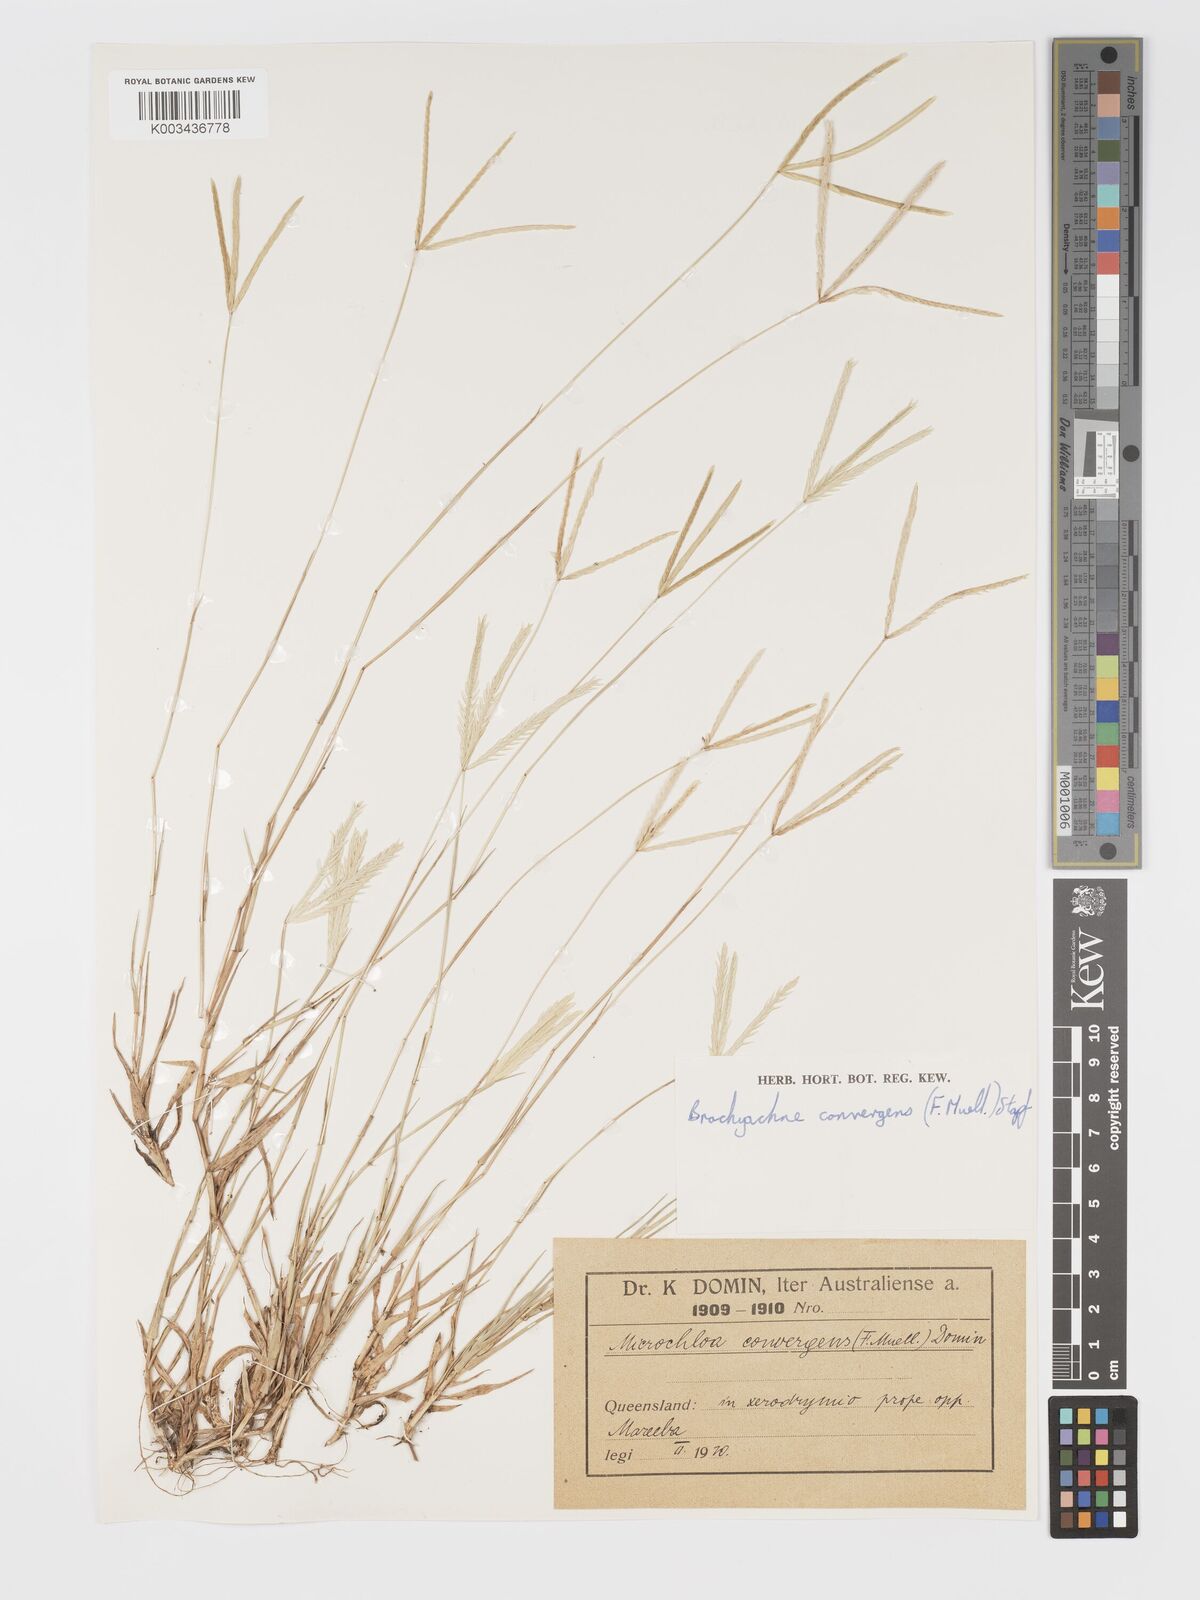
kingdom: Plantae
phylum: Tracheophyta
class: Liliopsida
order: Poales
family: Poaceae
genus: Cynodon
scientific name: Cynodon convergens
